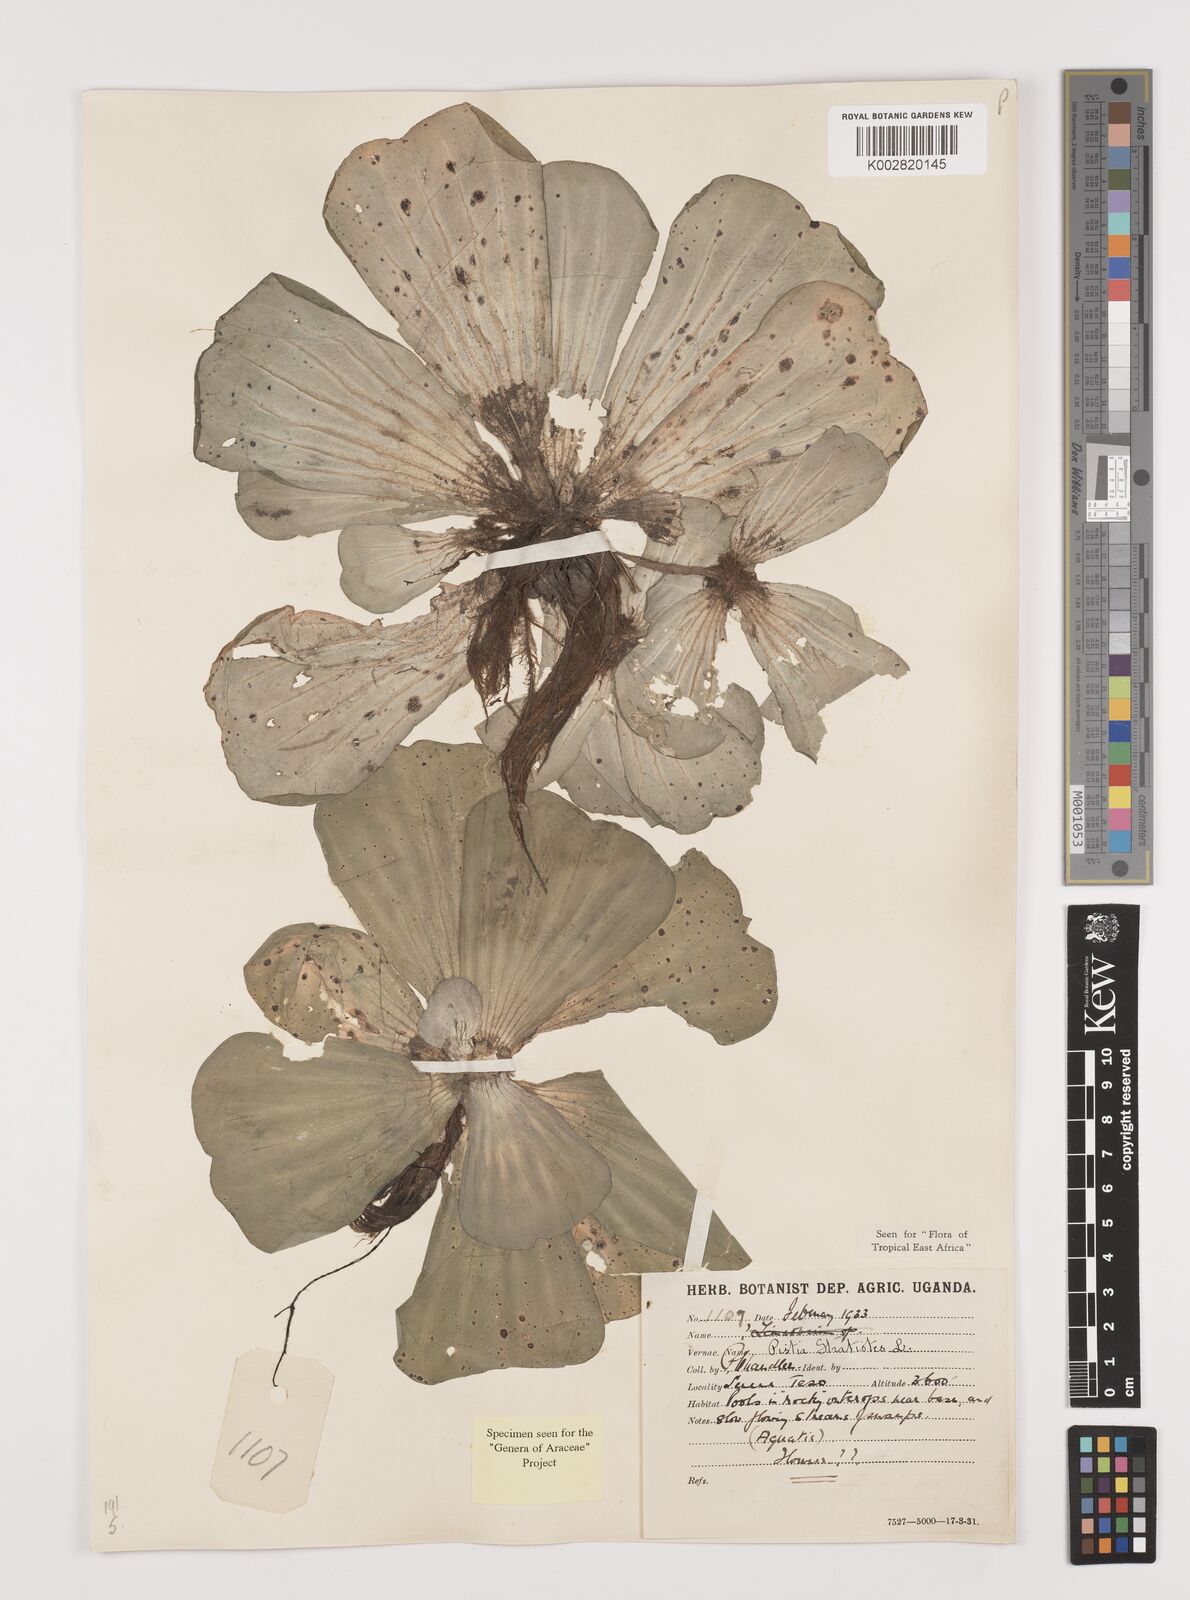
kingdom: Plantae
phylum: Tracheophyta
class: Liliopsida
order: Alismatales
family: Araceae
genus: Pistia
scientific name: Pistia stratiotes
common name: Water lettuce
